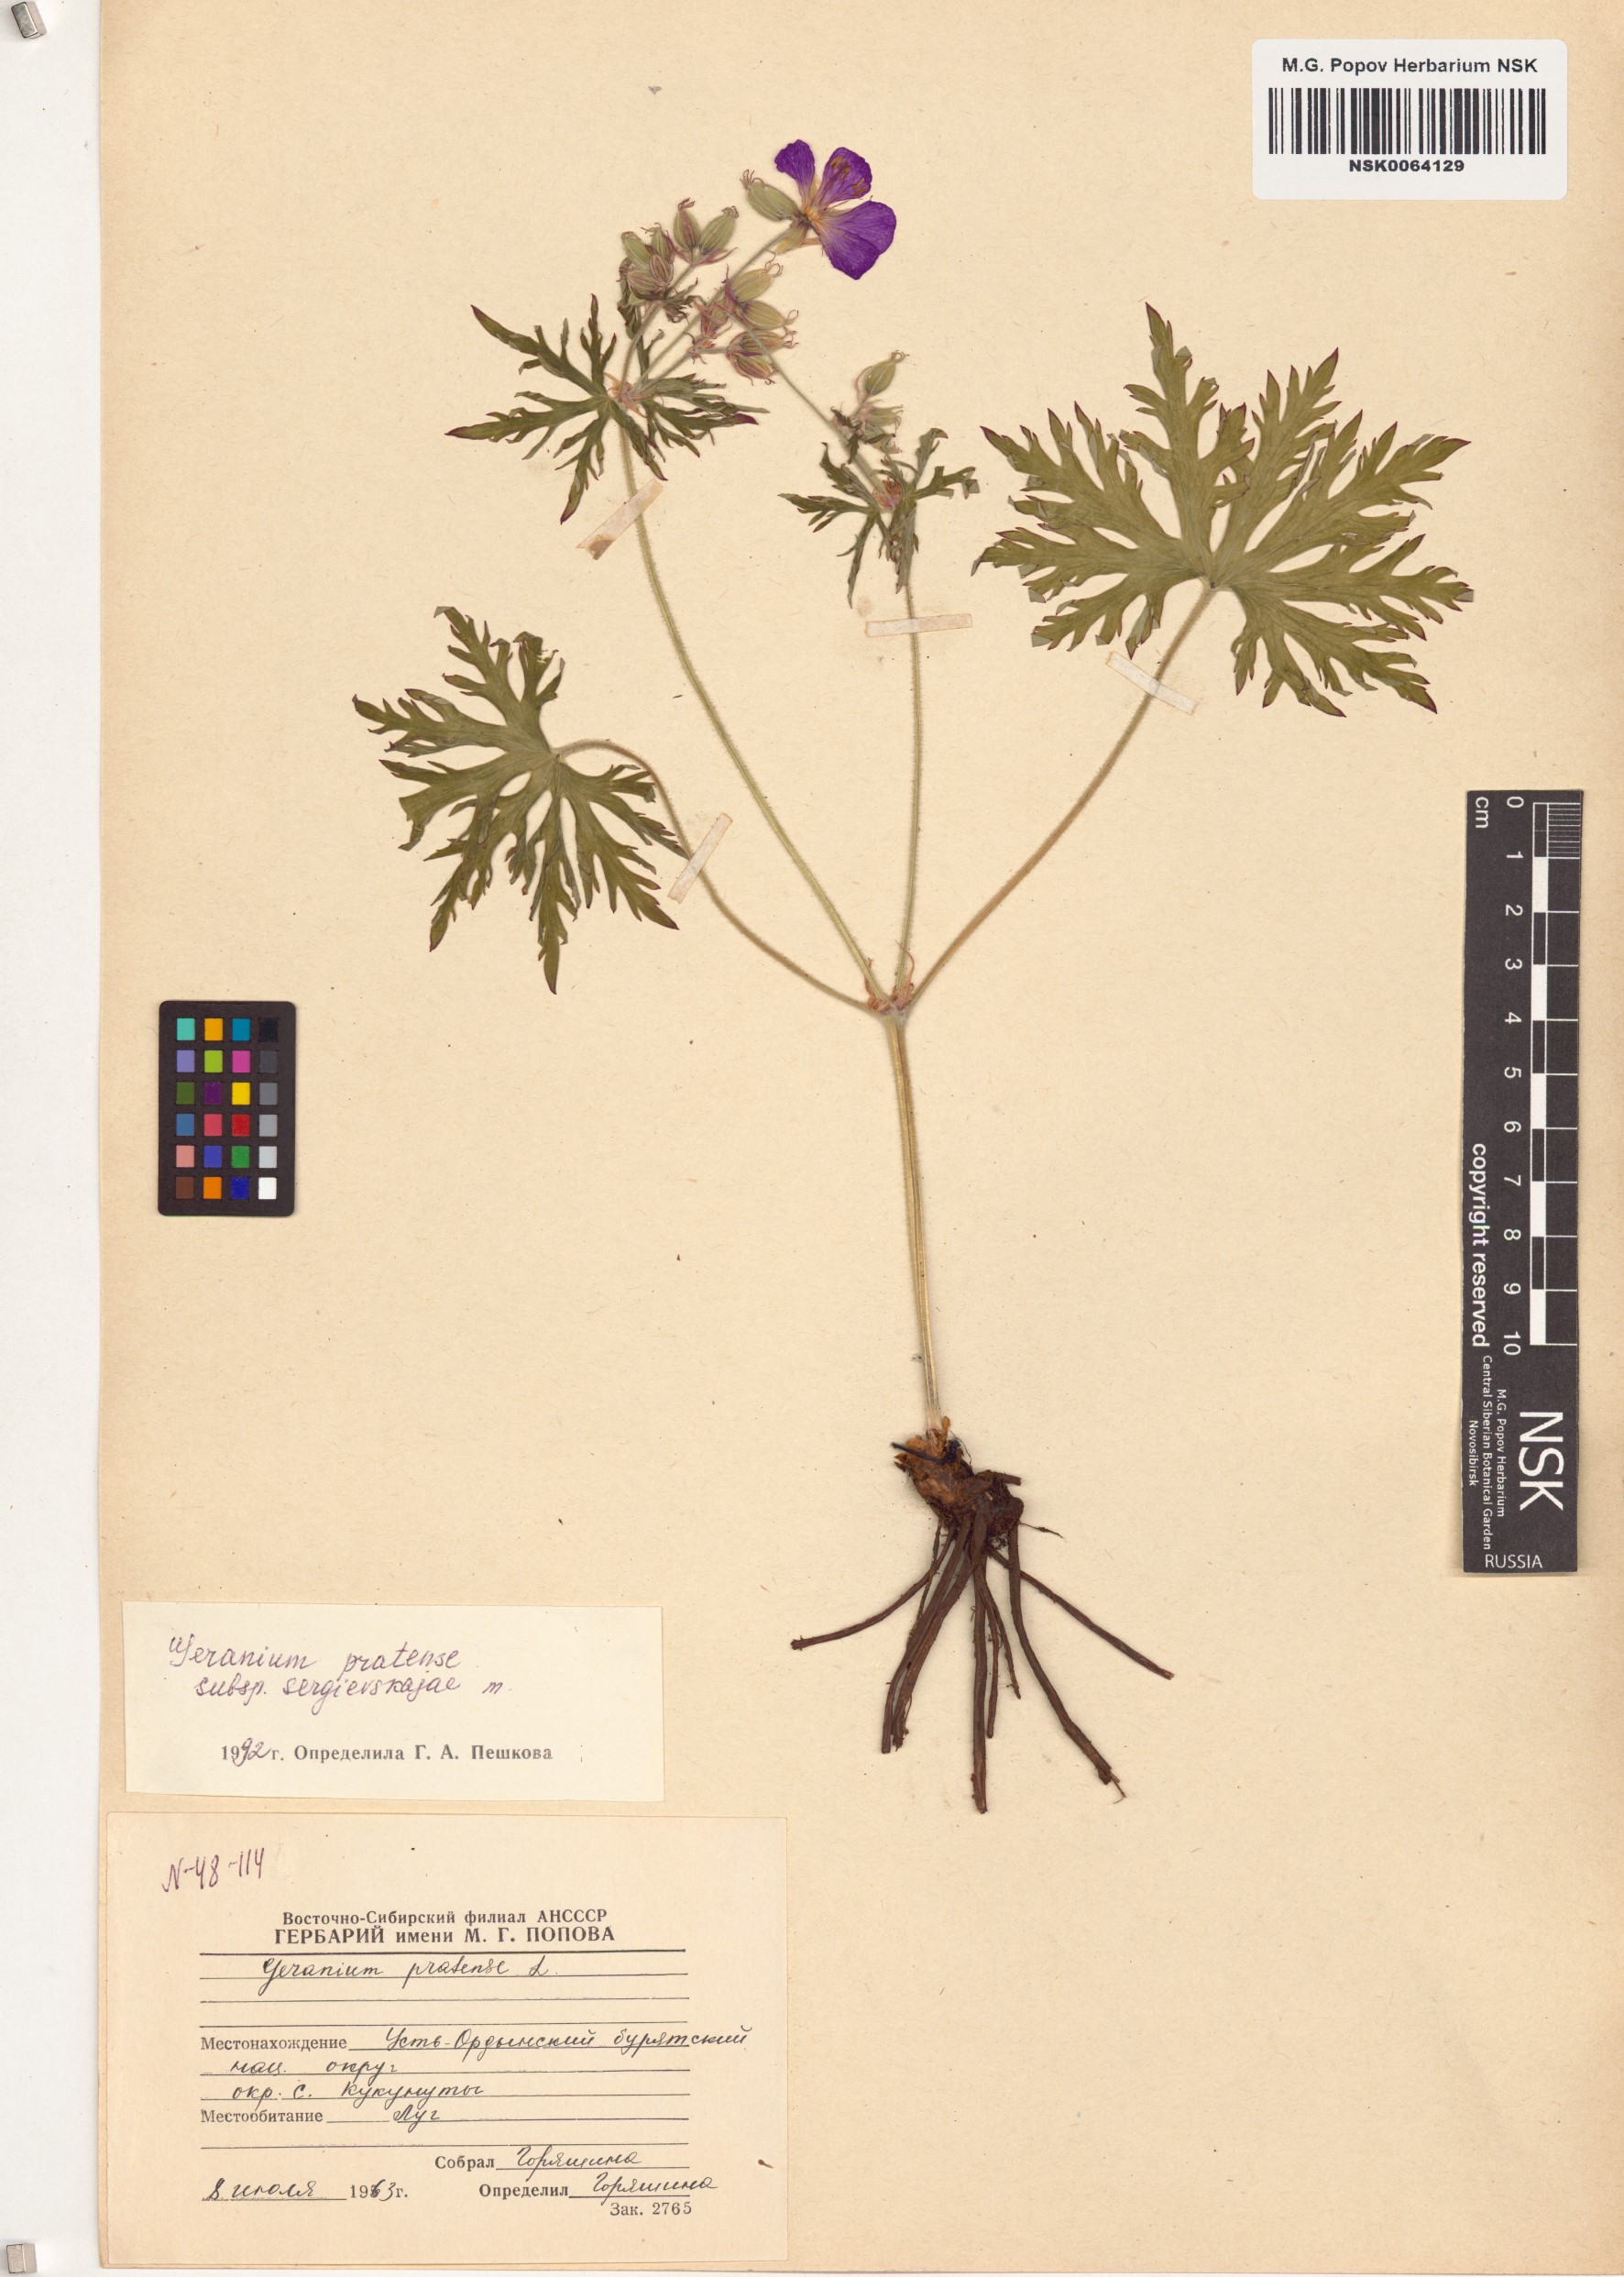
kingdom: Plantae
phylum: Tracheophyta
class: Magnoliopsida
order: Geraniales
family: Geraniaceae
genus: Geranium
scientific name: Geranium pratense
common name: Meadow crane's-bill
